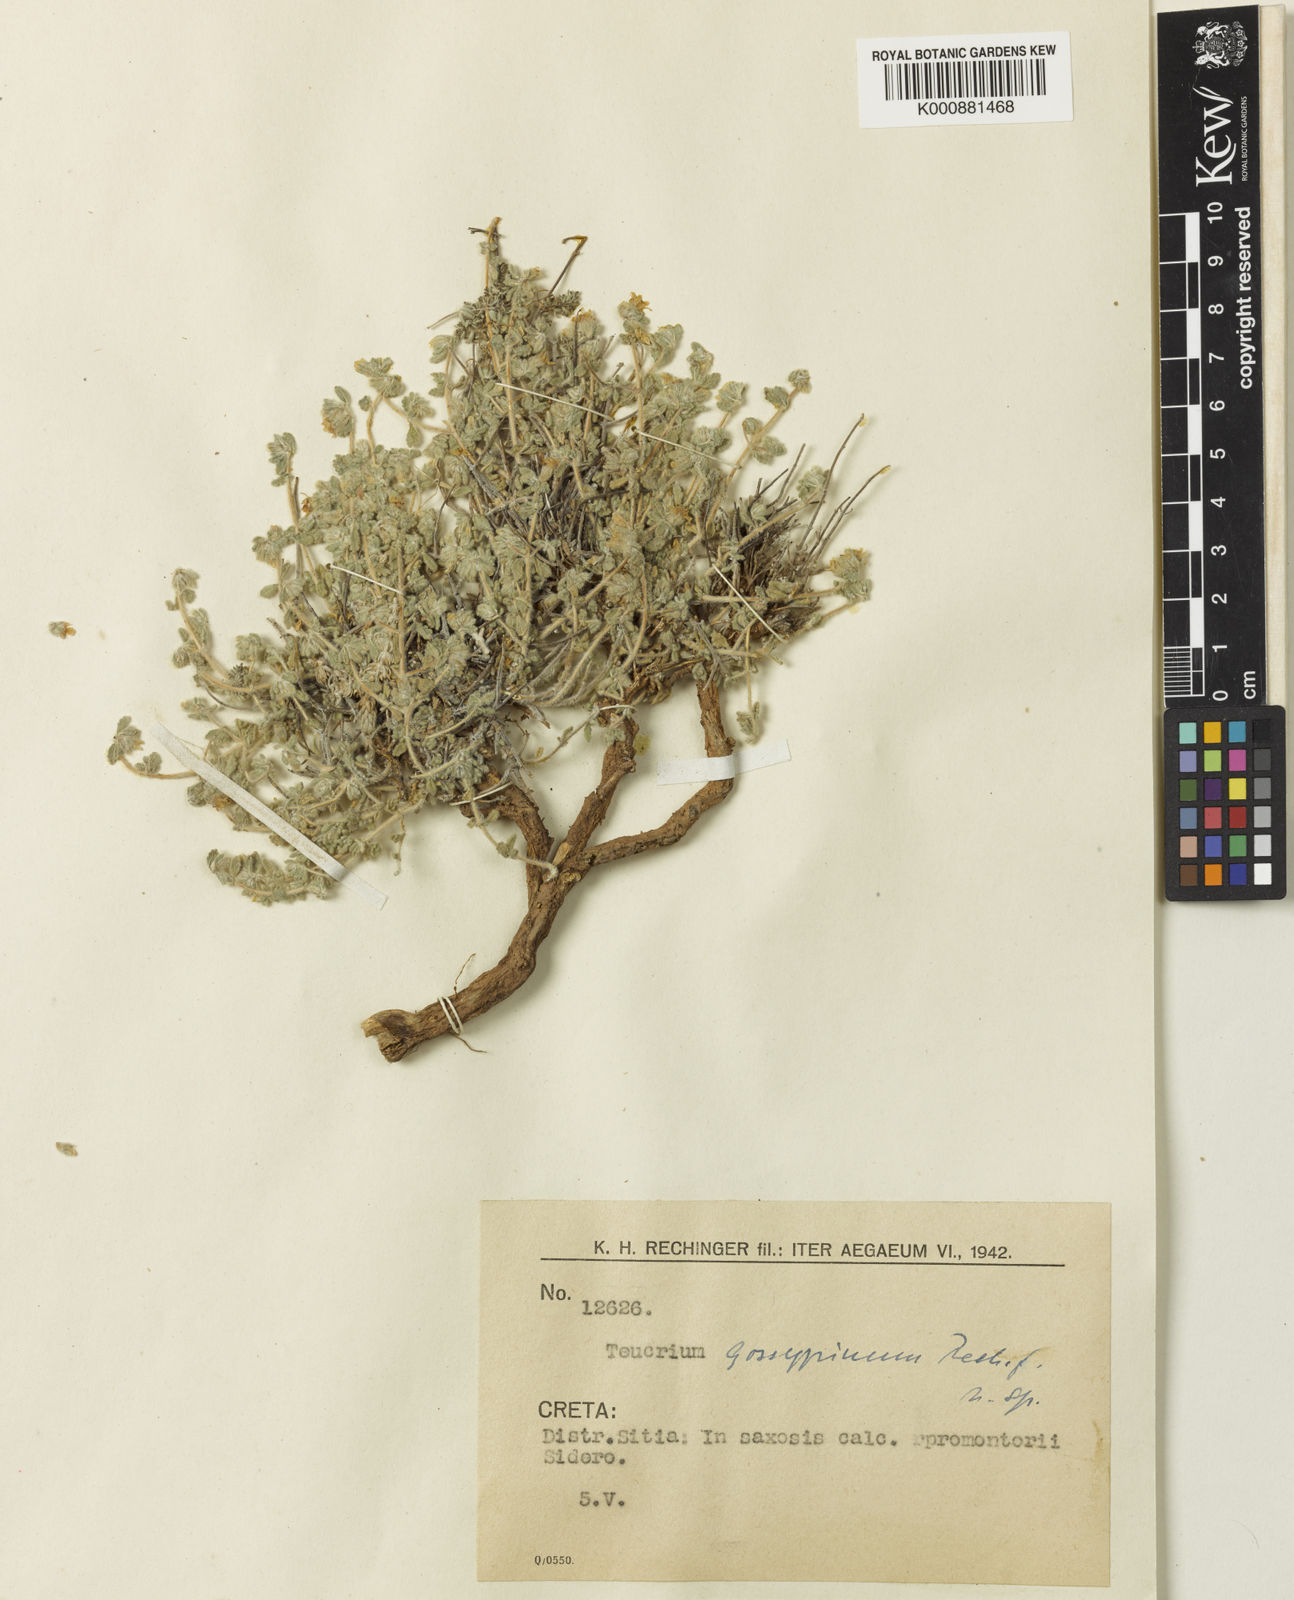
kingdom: Plantae
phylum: Tracheophyta
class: Magnoliopsida
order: Lamiales
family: Lamiaceae
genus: Teucrium
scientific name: Teucrium alpestre
